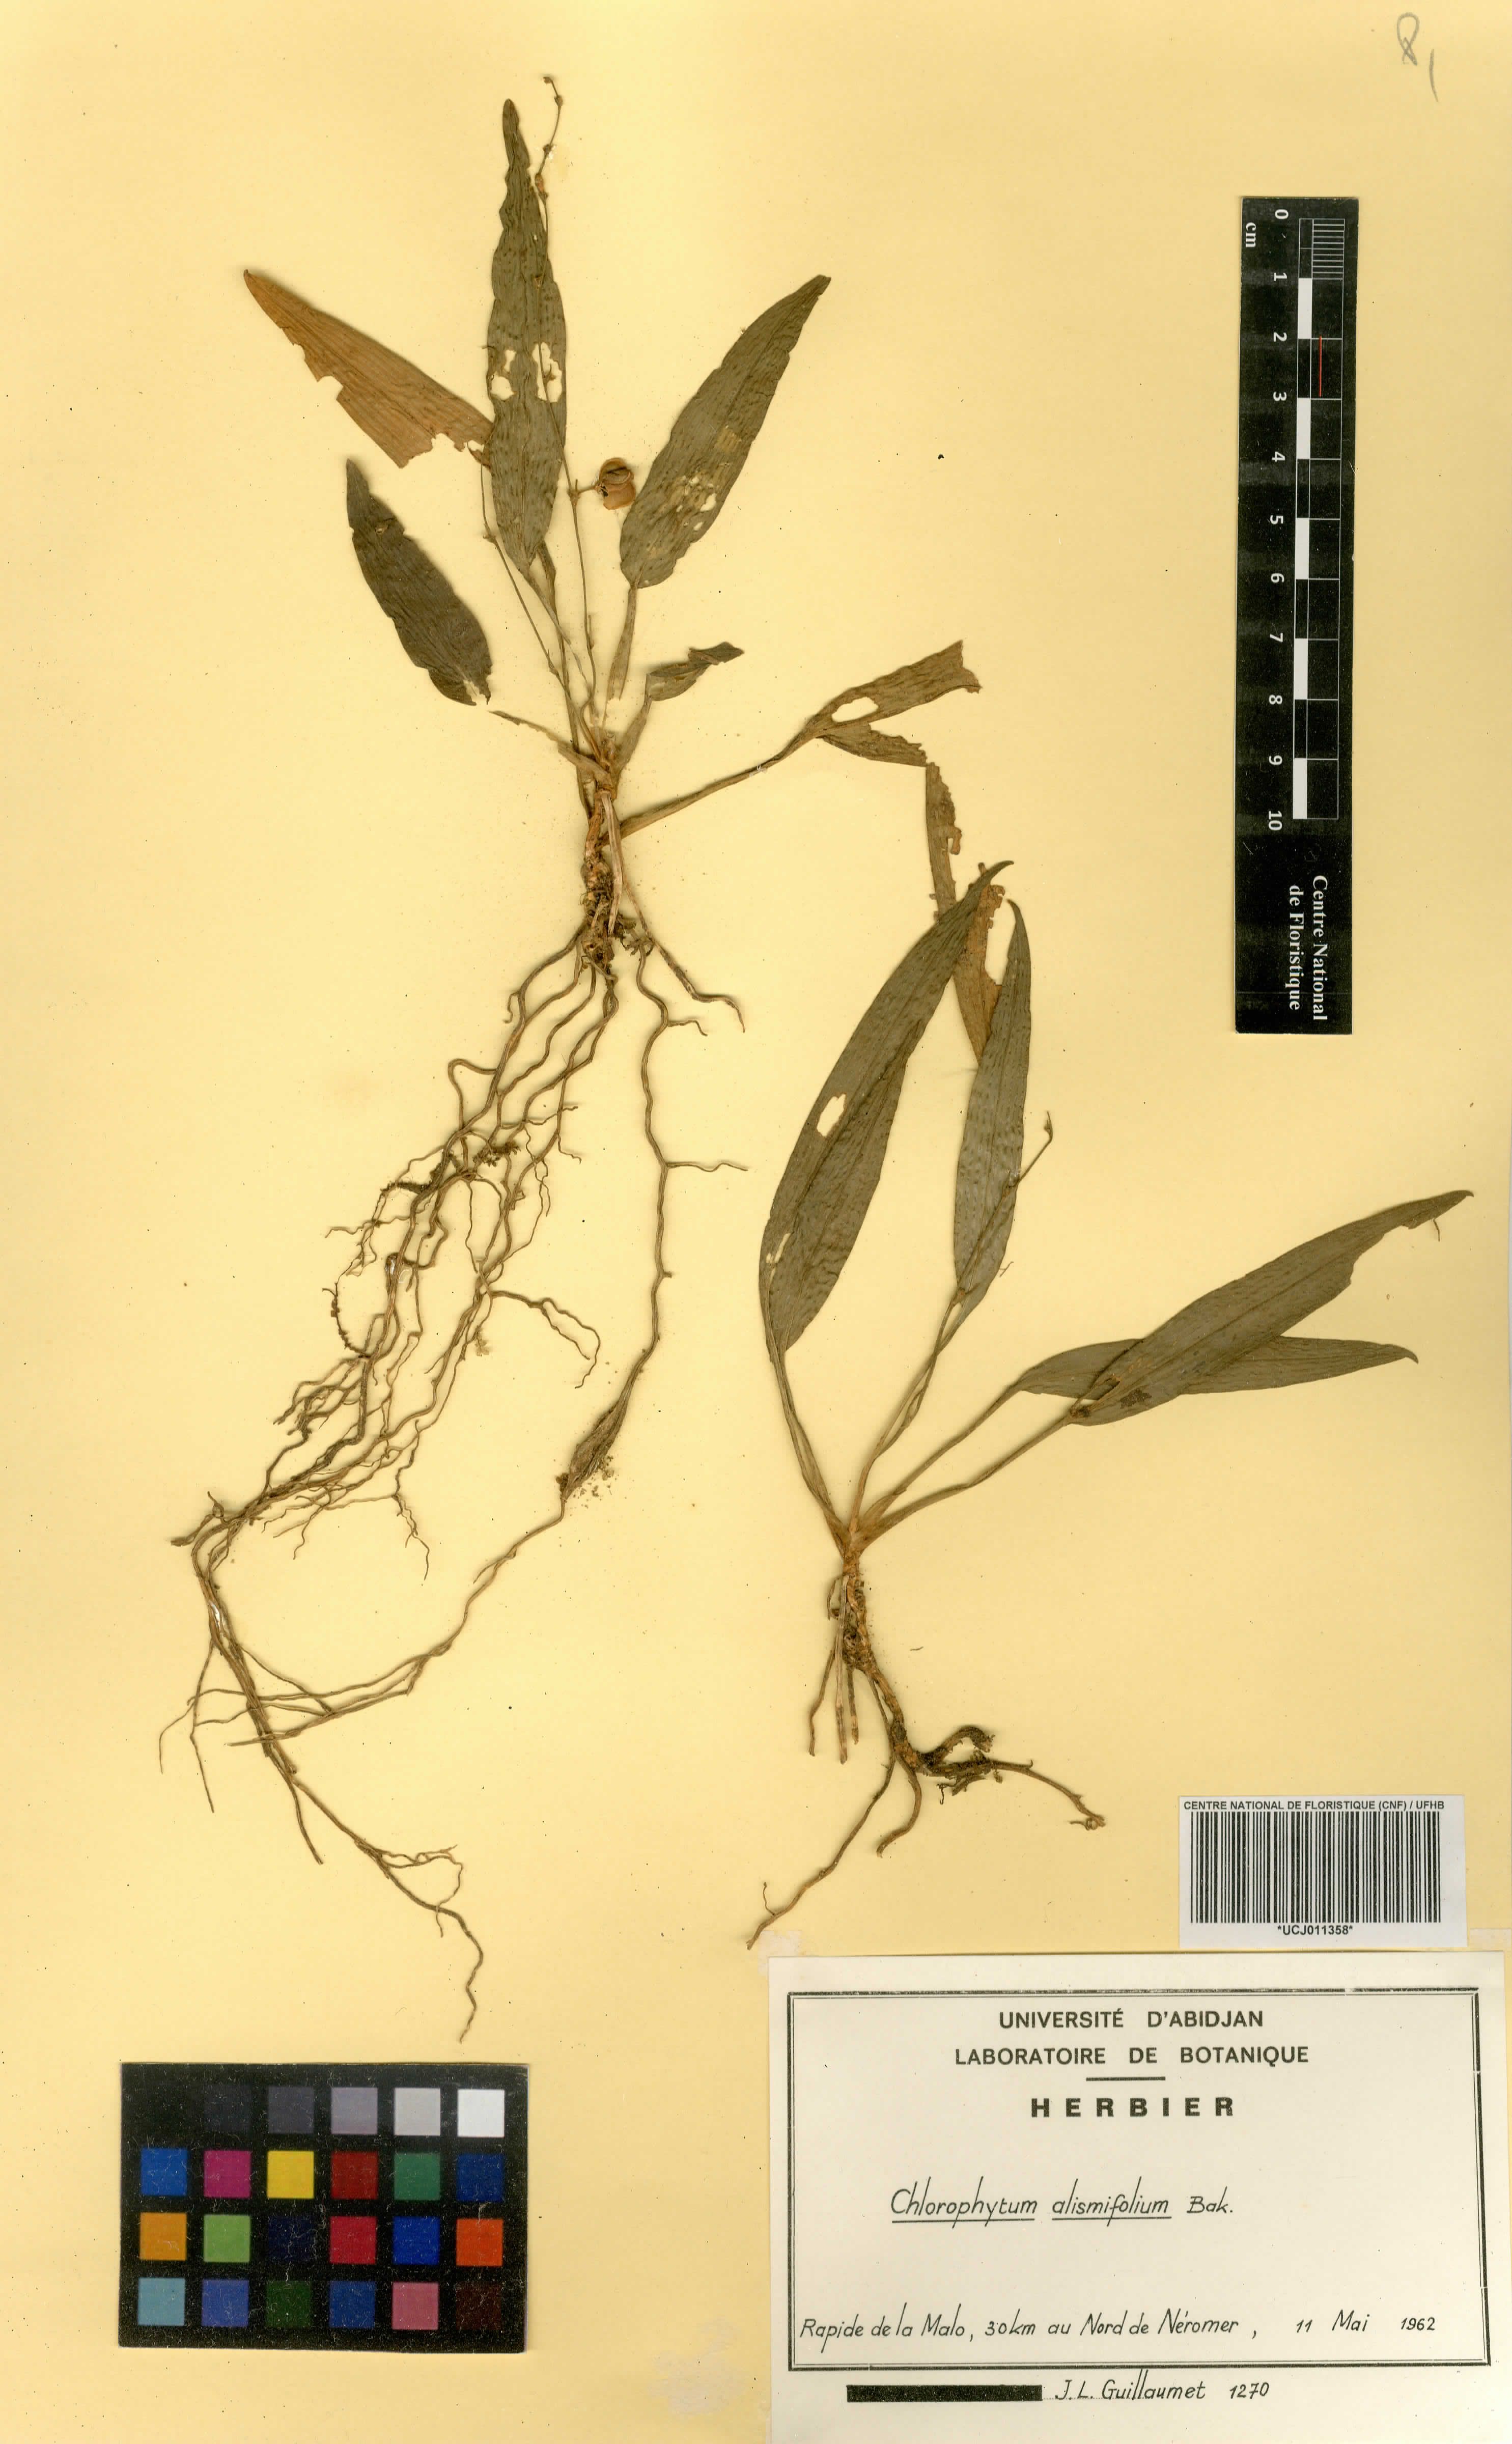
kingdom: Plantae
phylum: Tracheophyta
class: Liliopsida
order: Asparagales
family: Asparagaceae
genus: Chlorophytum
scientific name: Chlorophytum alismifolium
